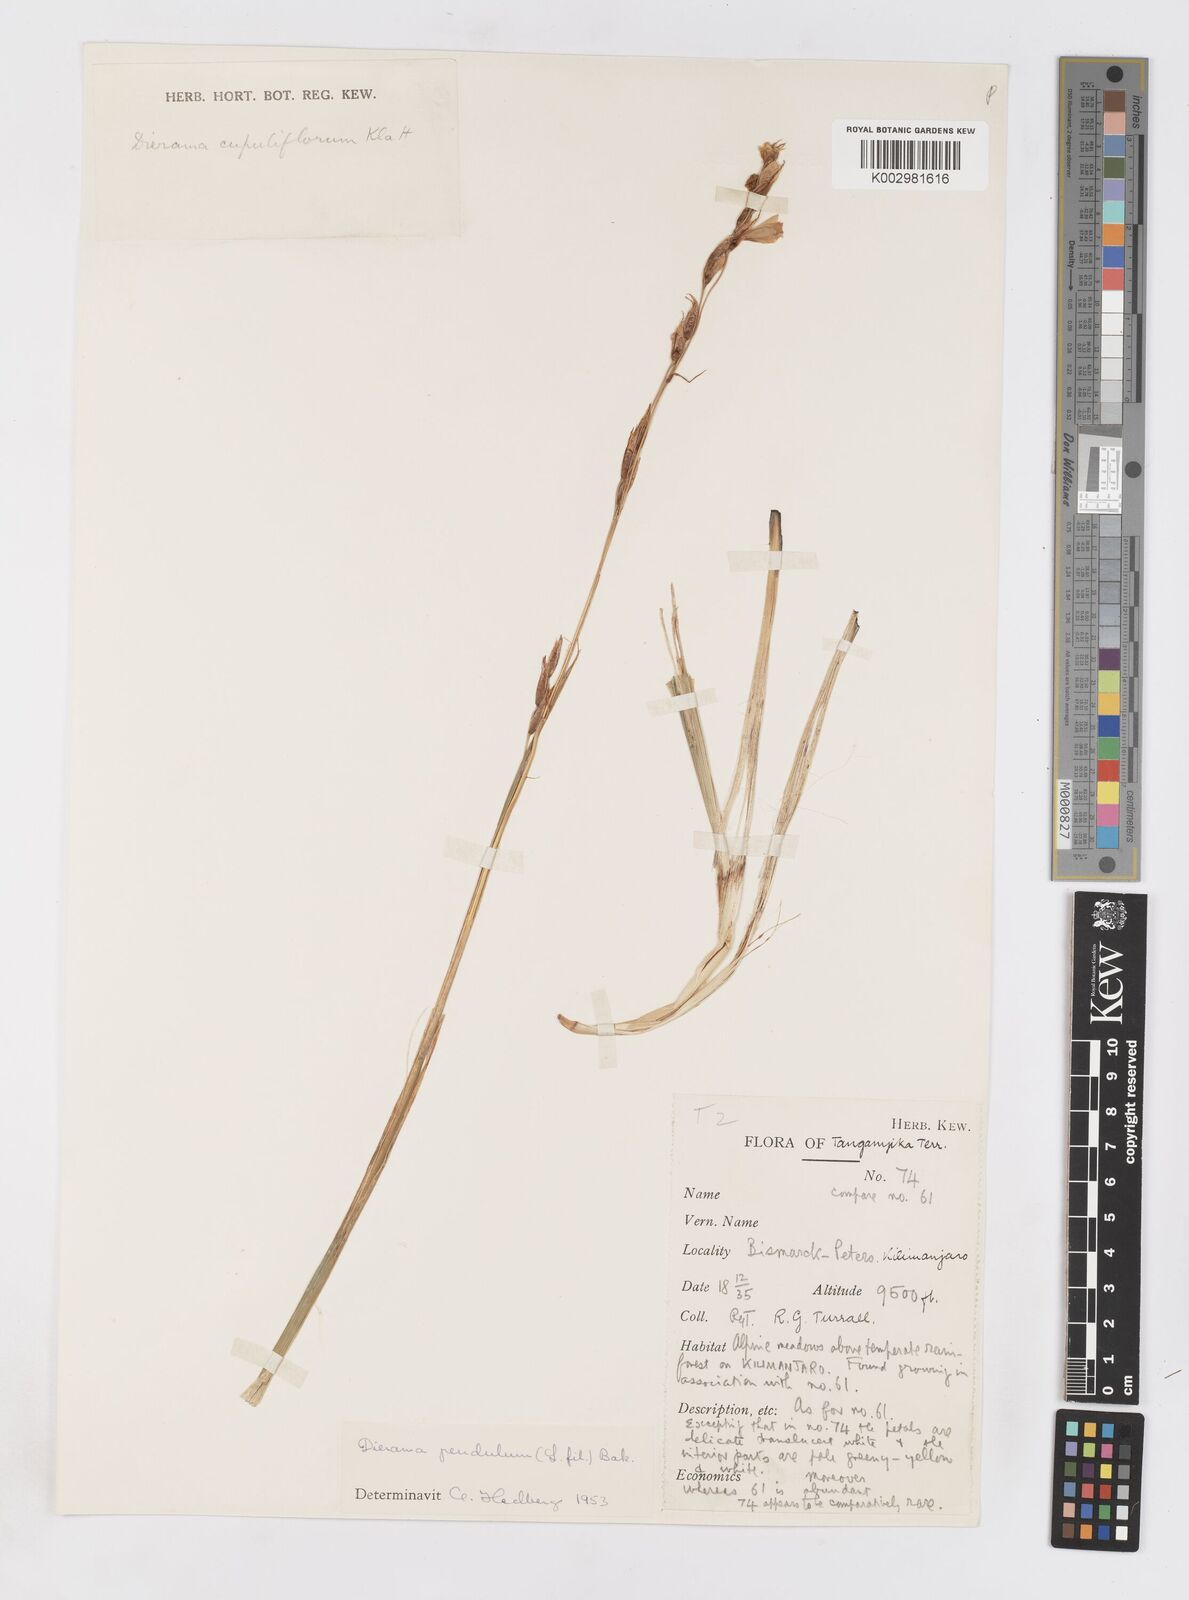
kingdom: Plantae
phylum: Tracheophyta
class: Liliopsida
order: Asparagales
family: Iridaceae
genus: Dierama
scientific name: Dierama cupuliflorum
